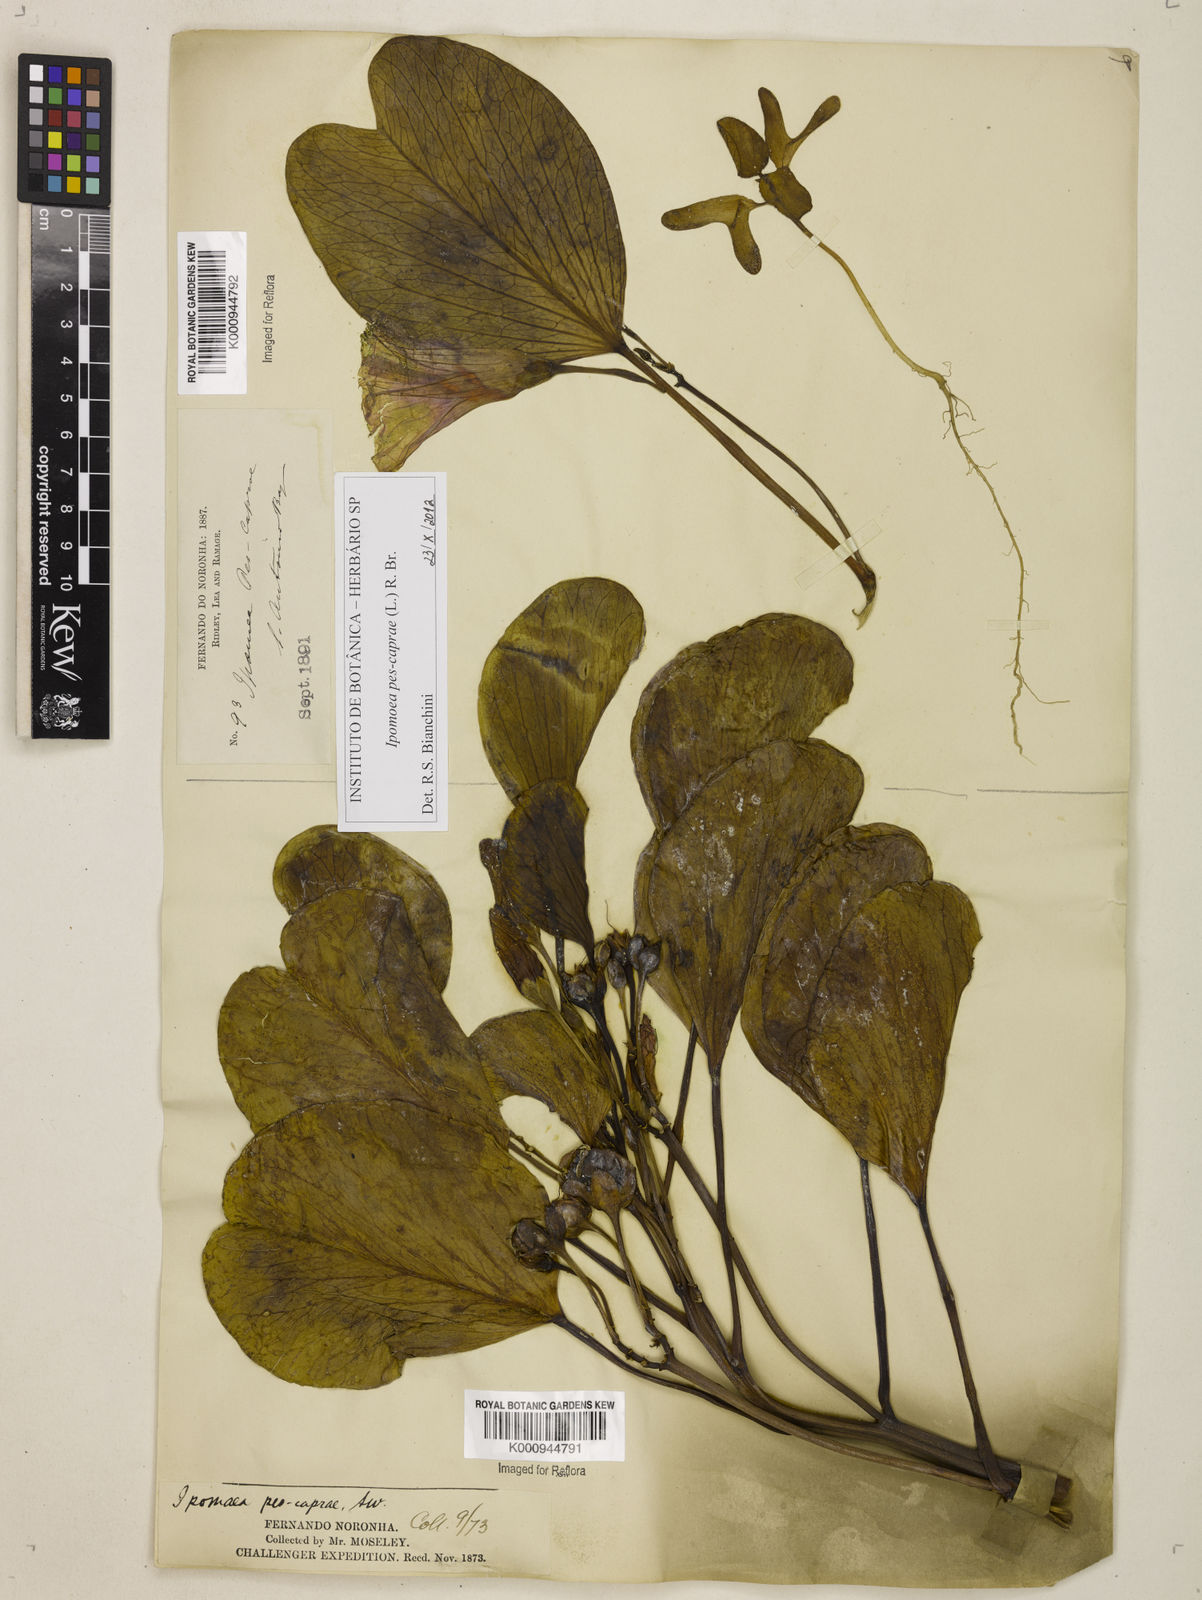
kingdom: Plantae
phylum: Tracheophyta
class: Magnoliopsida
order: Solanales
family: Convolvulaceae
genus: Ipomoea
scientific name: Ipomoea pes-caprae
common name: Beach morning glory
